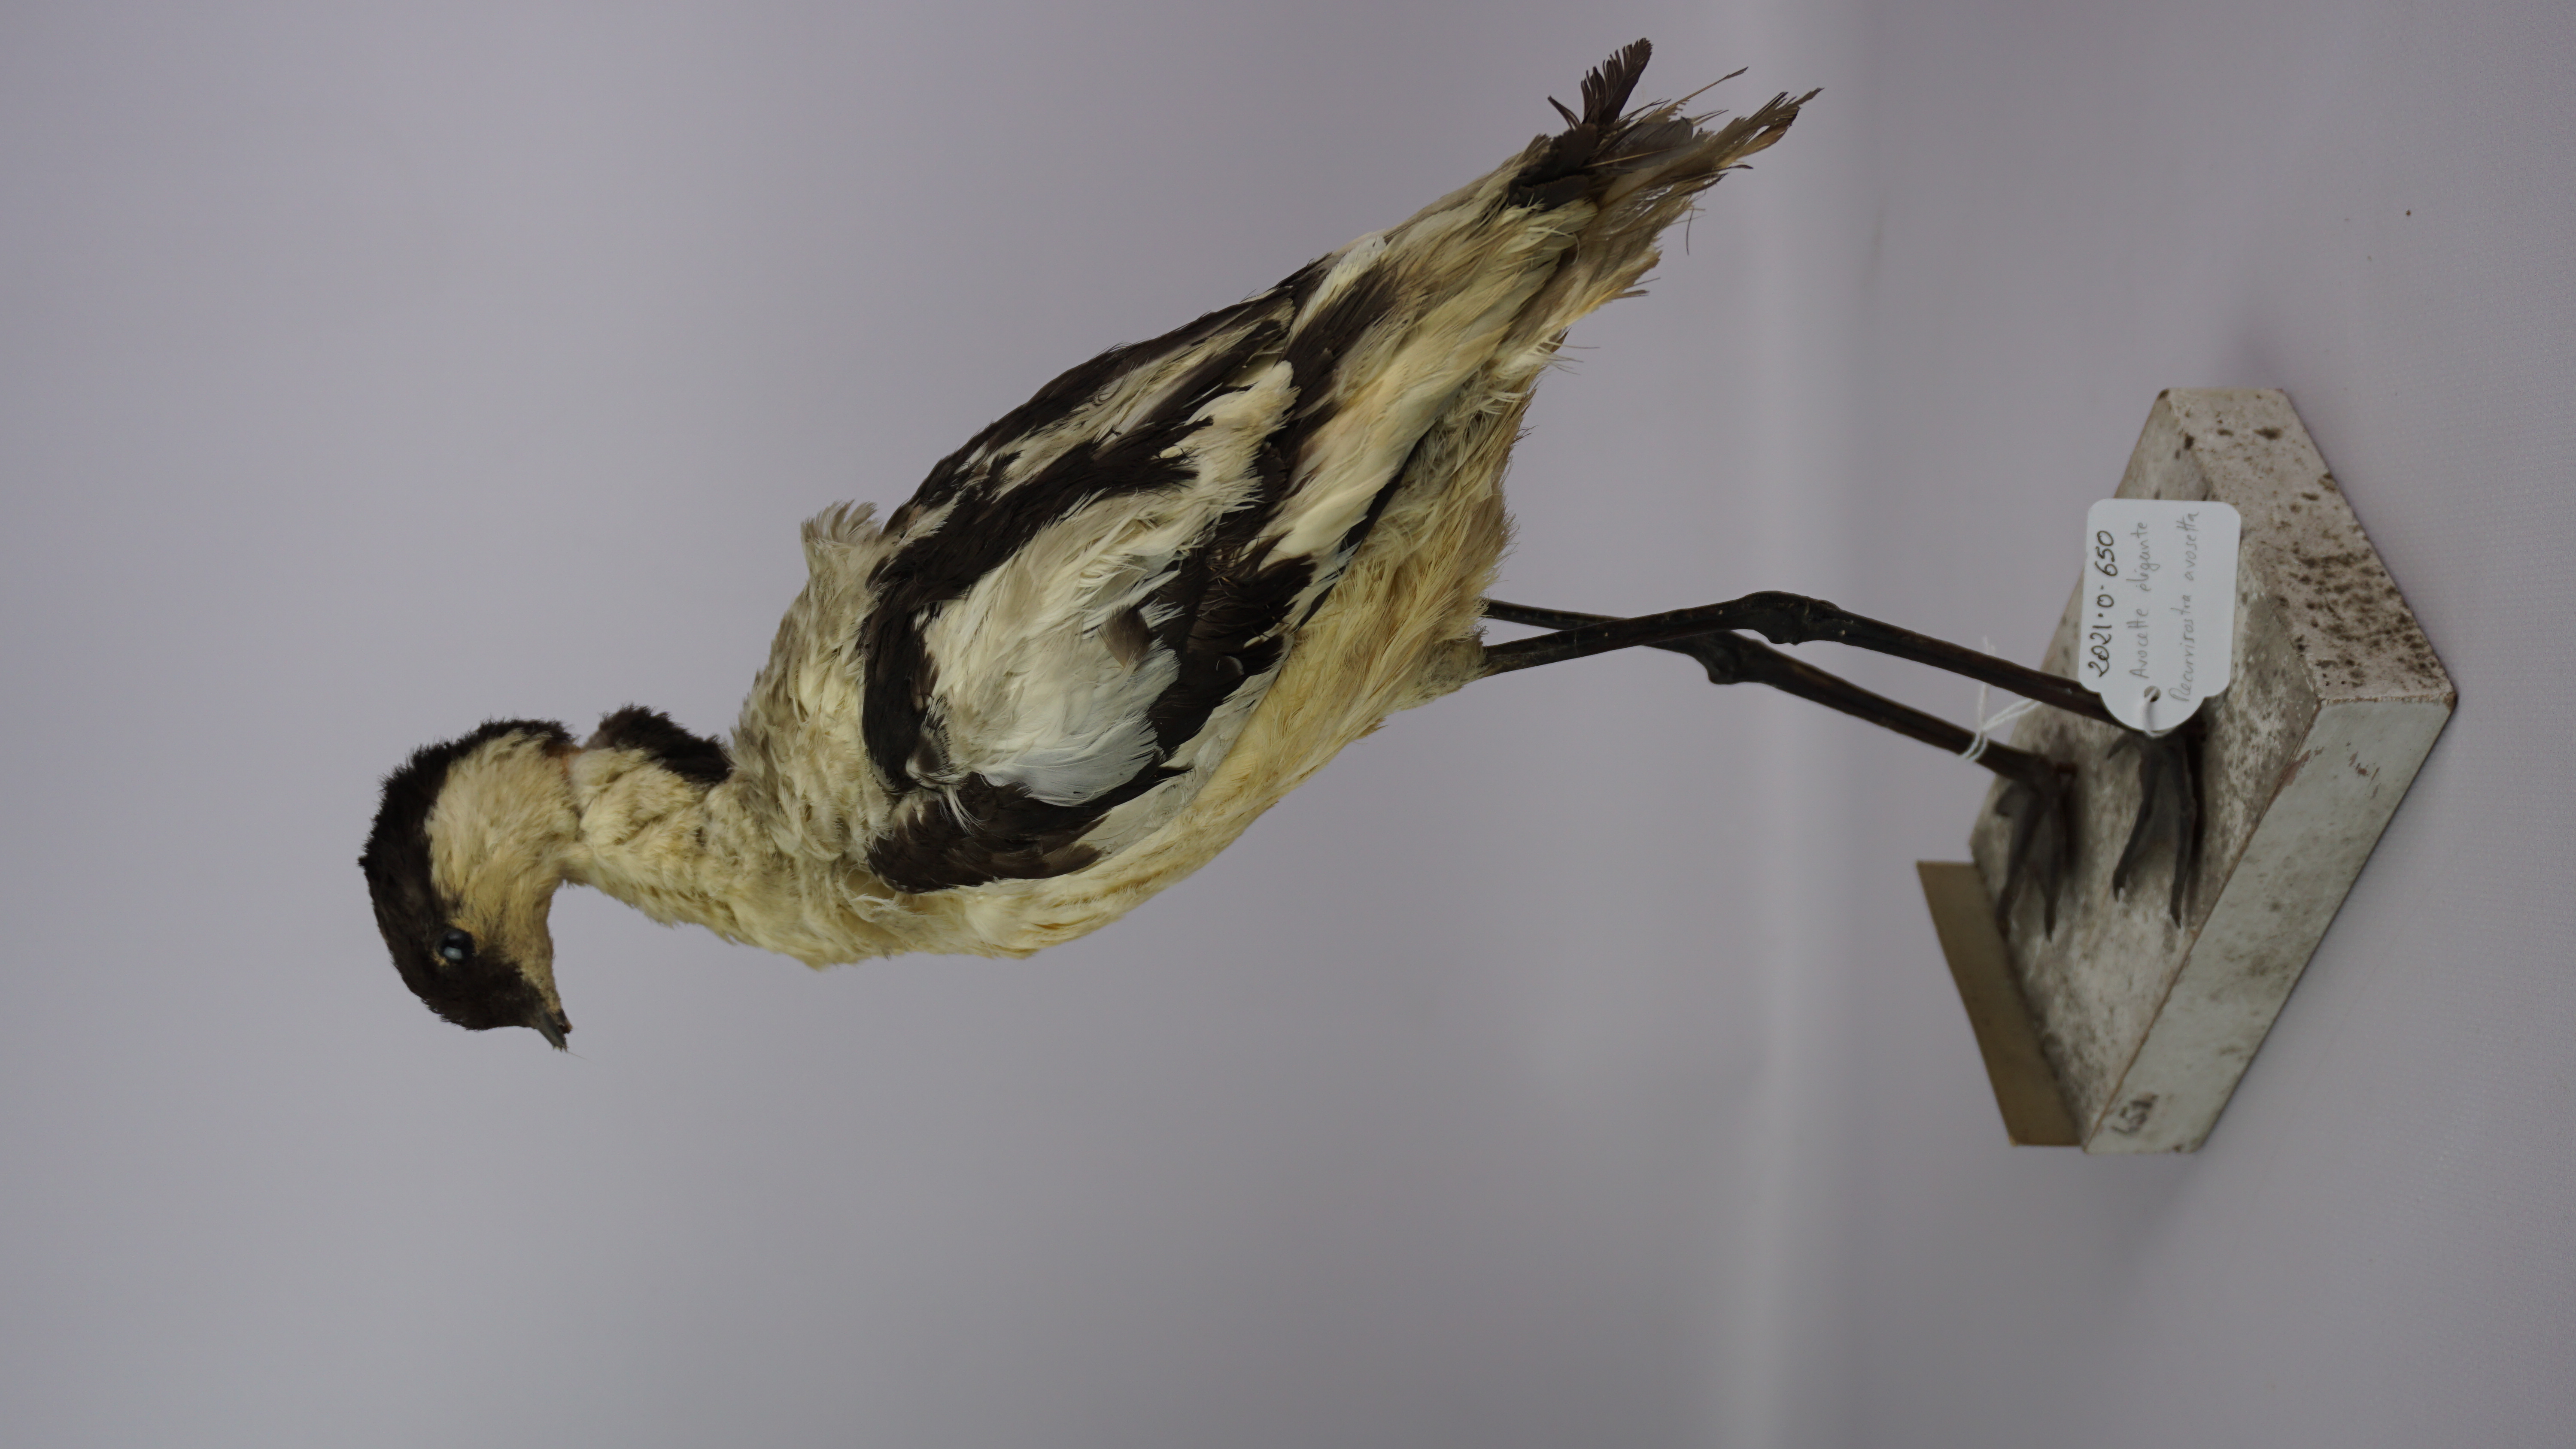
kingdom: Animalia
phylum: Chordata
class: Aves
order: Charadriiformes
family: Recurvirostridae
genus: Recurvirostra
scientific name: Recurvirostra avosetta
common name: Pied avocet
